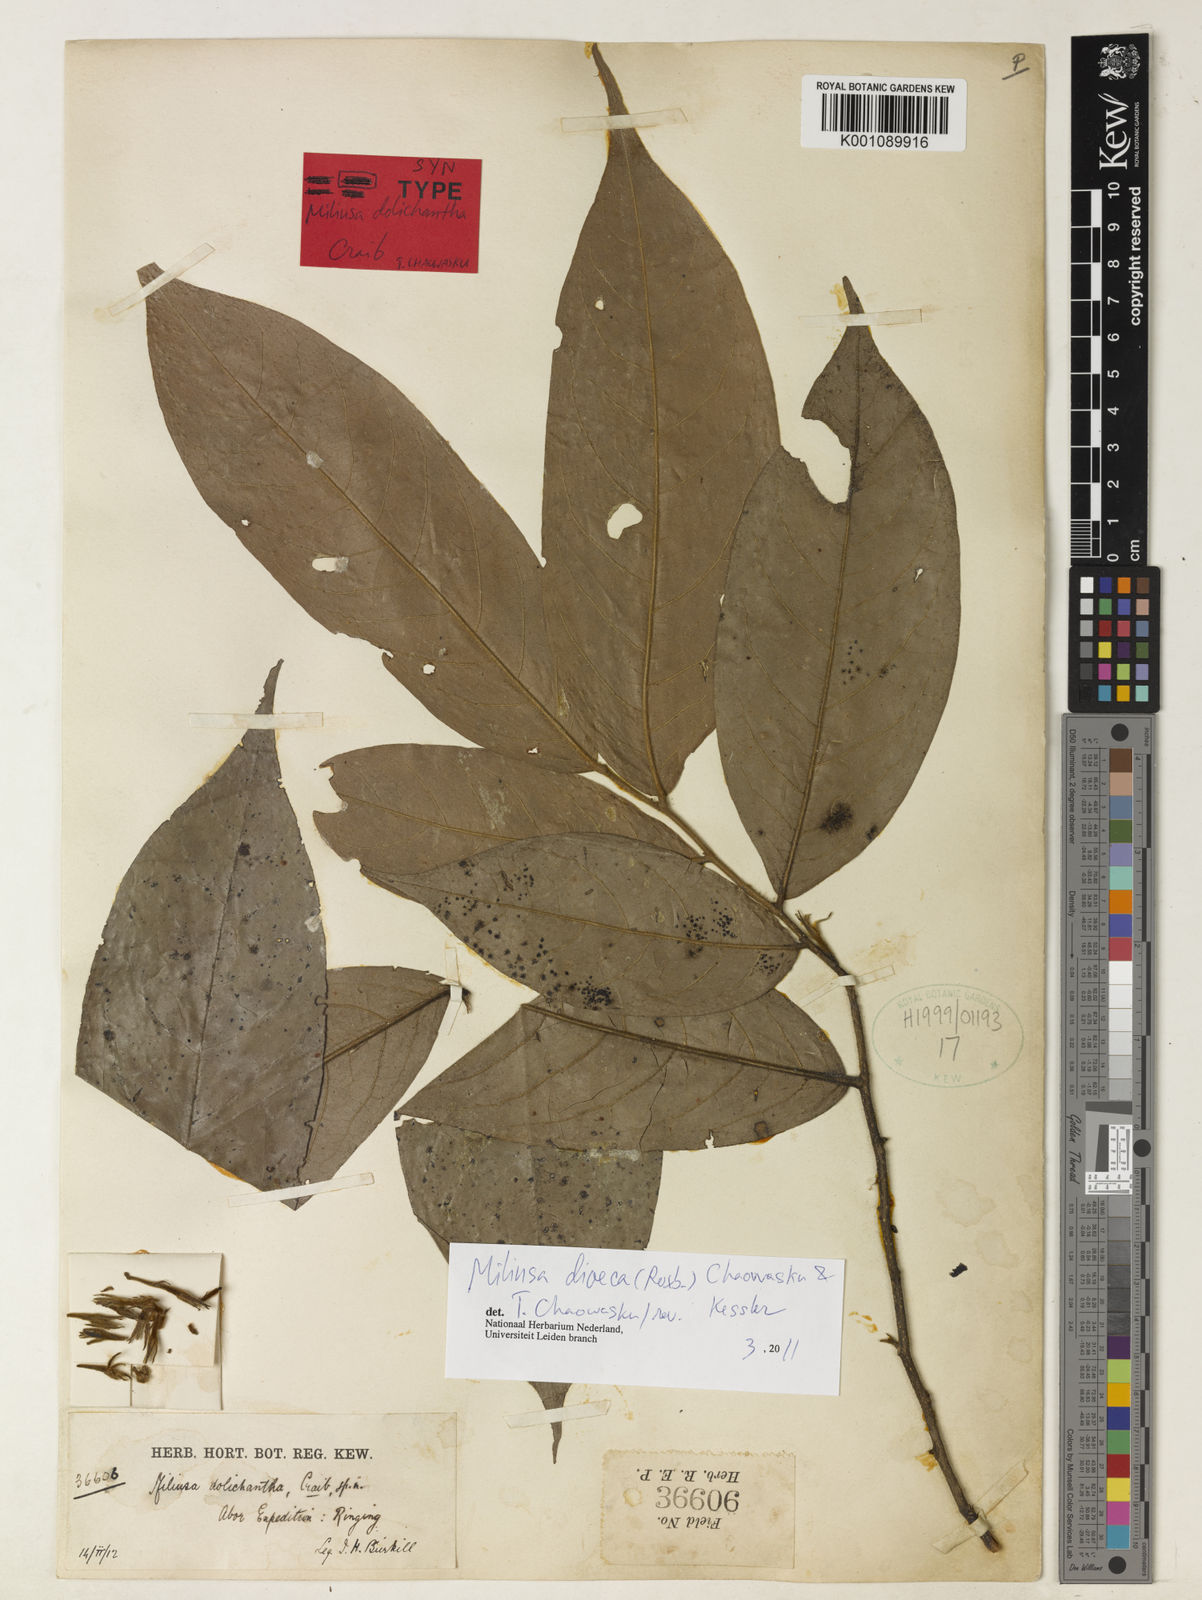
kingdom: Plantae
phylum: Tracheophyta
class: Magnoliopsida
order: Magnoliales
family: Annonaceae
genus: Miliusa
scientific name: Miliusa dolichantha
